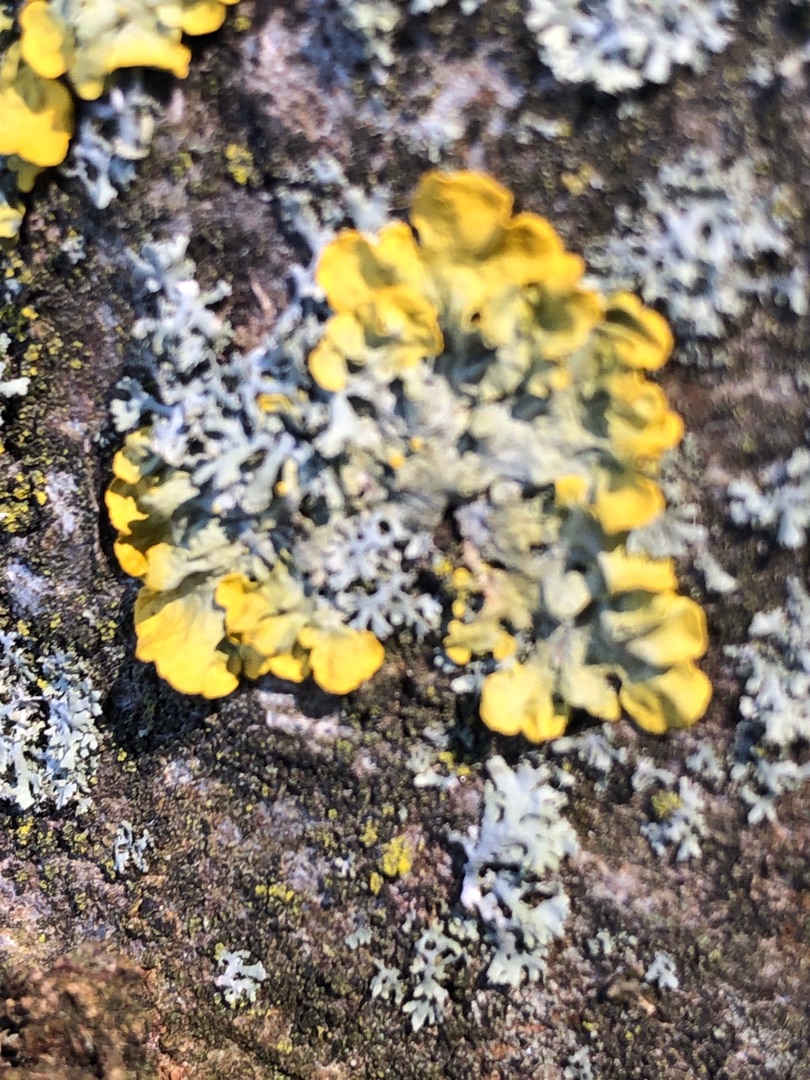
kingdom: Fungi
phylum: Ascomycota
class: Lecanoromycetes
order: Teloschistales
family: Teloschistaceae
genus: Xanthoria
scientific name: Xanthoria parietina
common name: Almindelig væggelav
